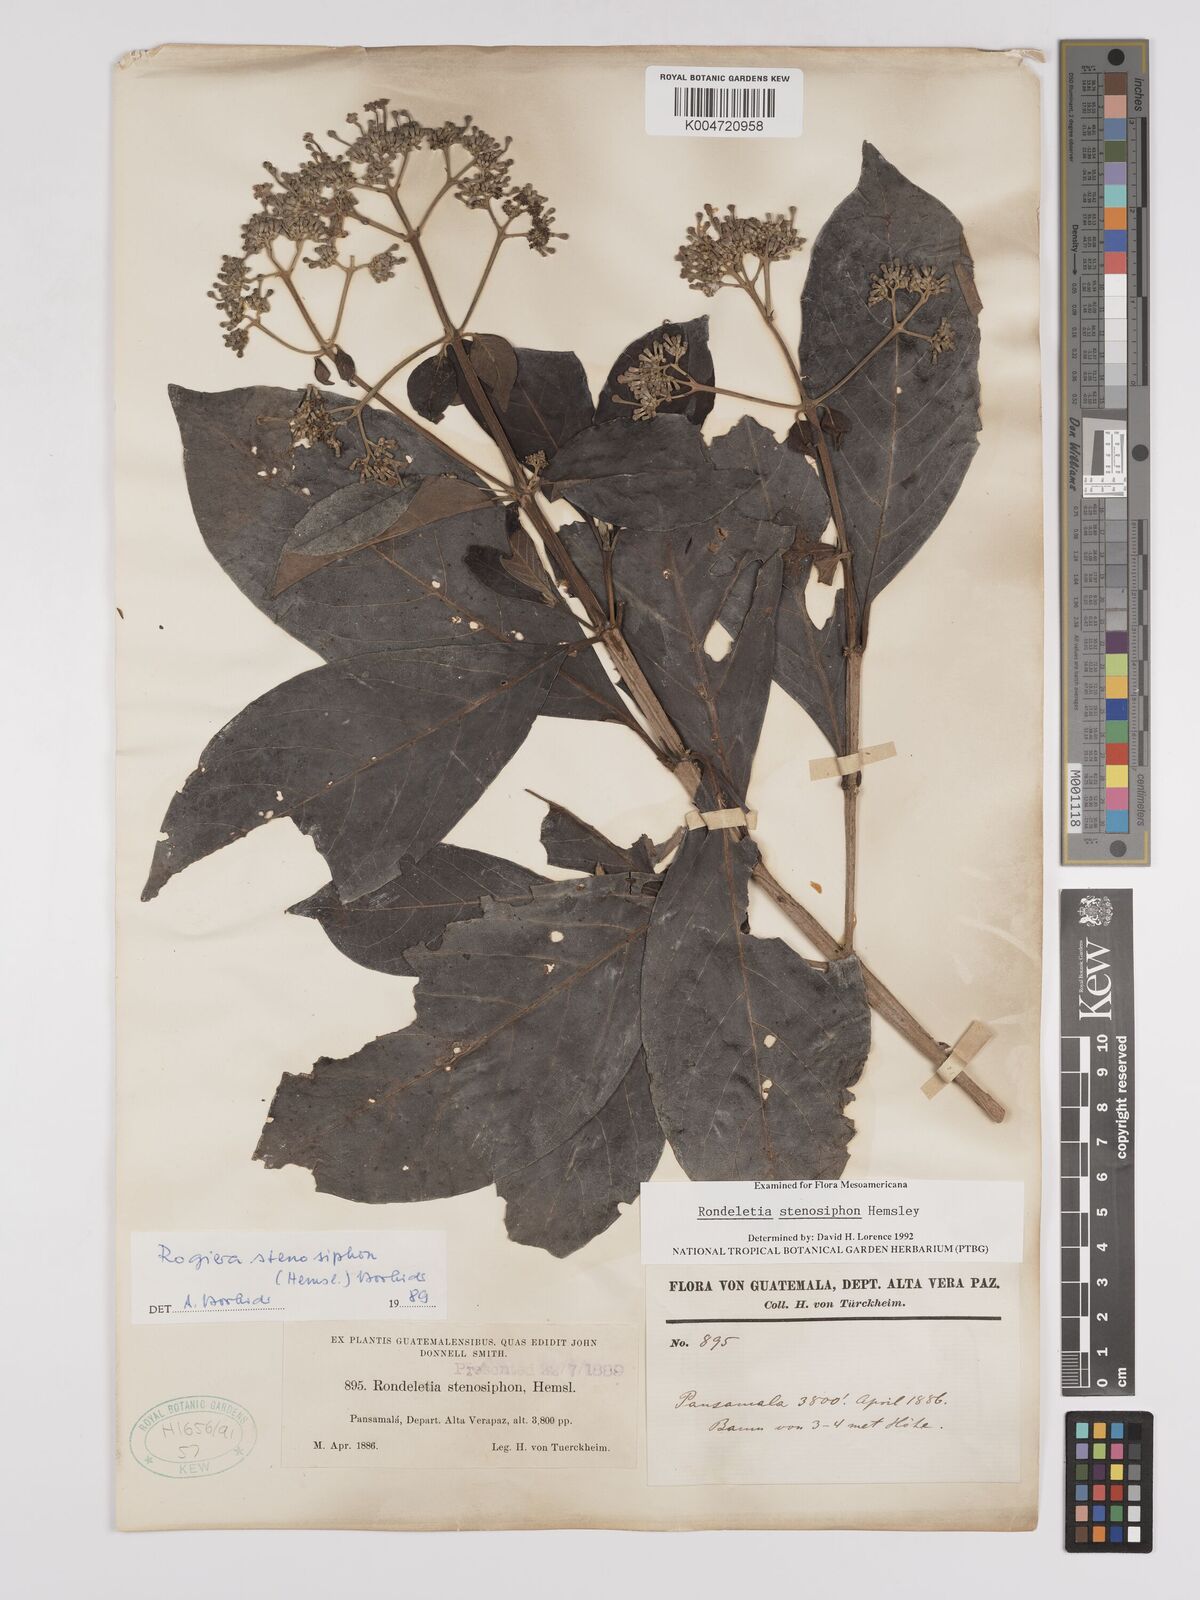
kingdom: Plantae
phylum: Tracheophyta
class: Magnoliopsida
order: Gentianales
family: Rubiaceae
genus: Rogiera
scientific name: Rogiera stenosiphon
